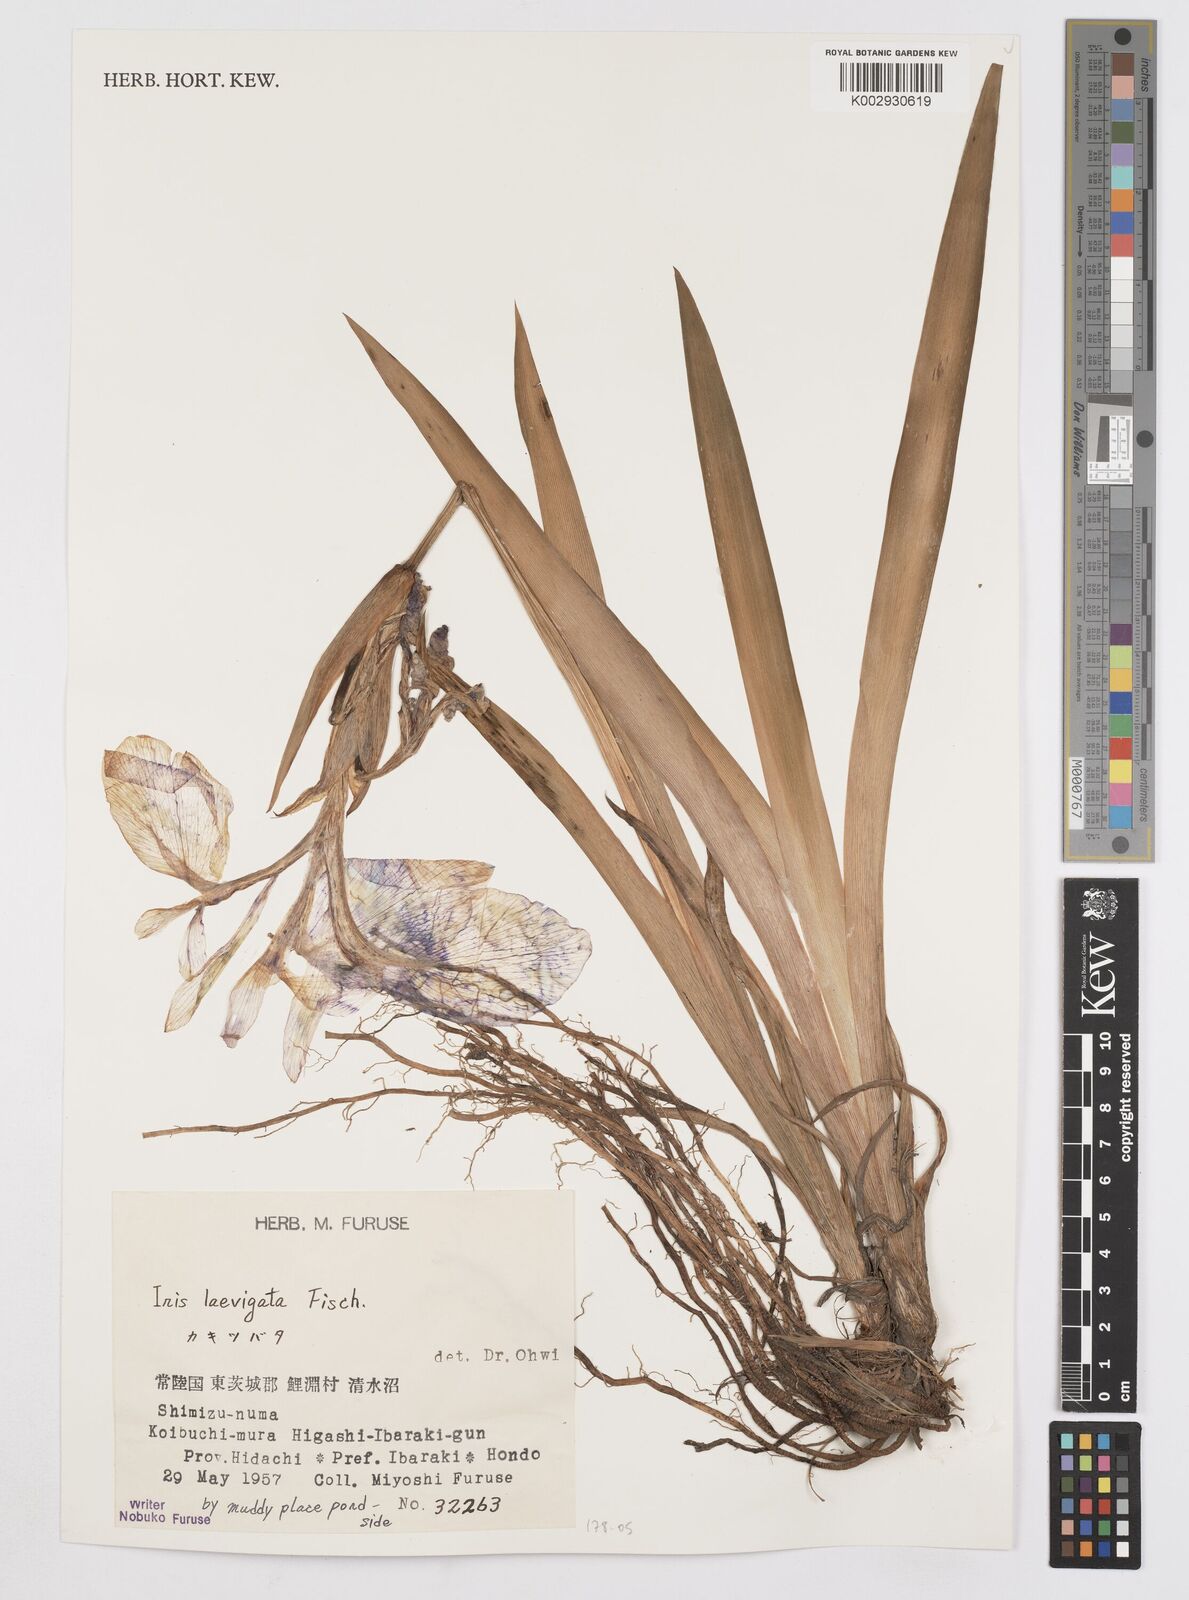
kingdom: Plantae
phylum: Tracheophyta
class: Liliopsida
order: Asparagales
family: Iridaceae
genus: Iris
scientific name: Iris laevigata
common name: Japanese iris
